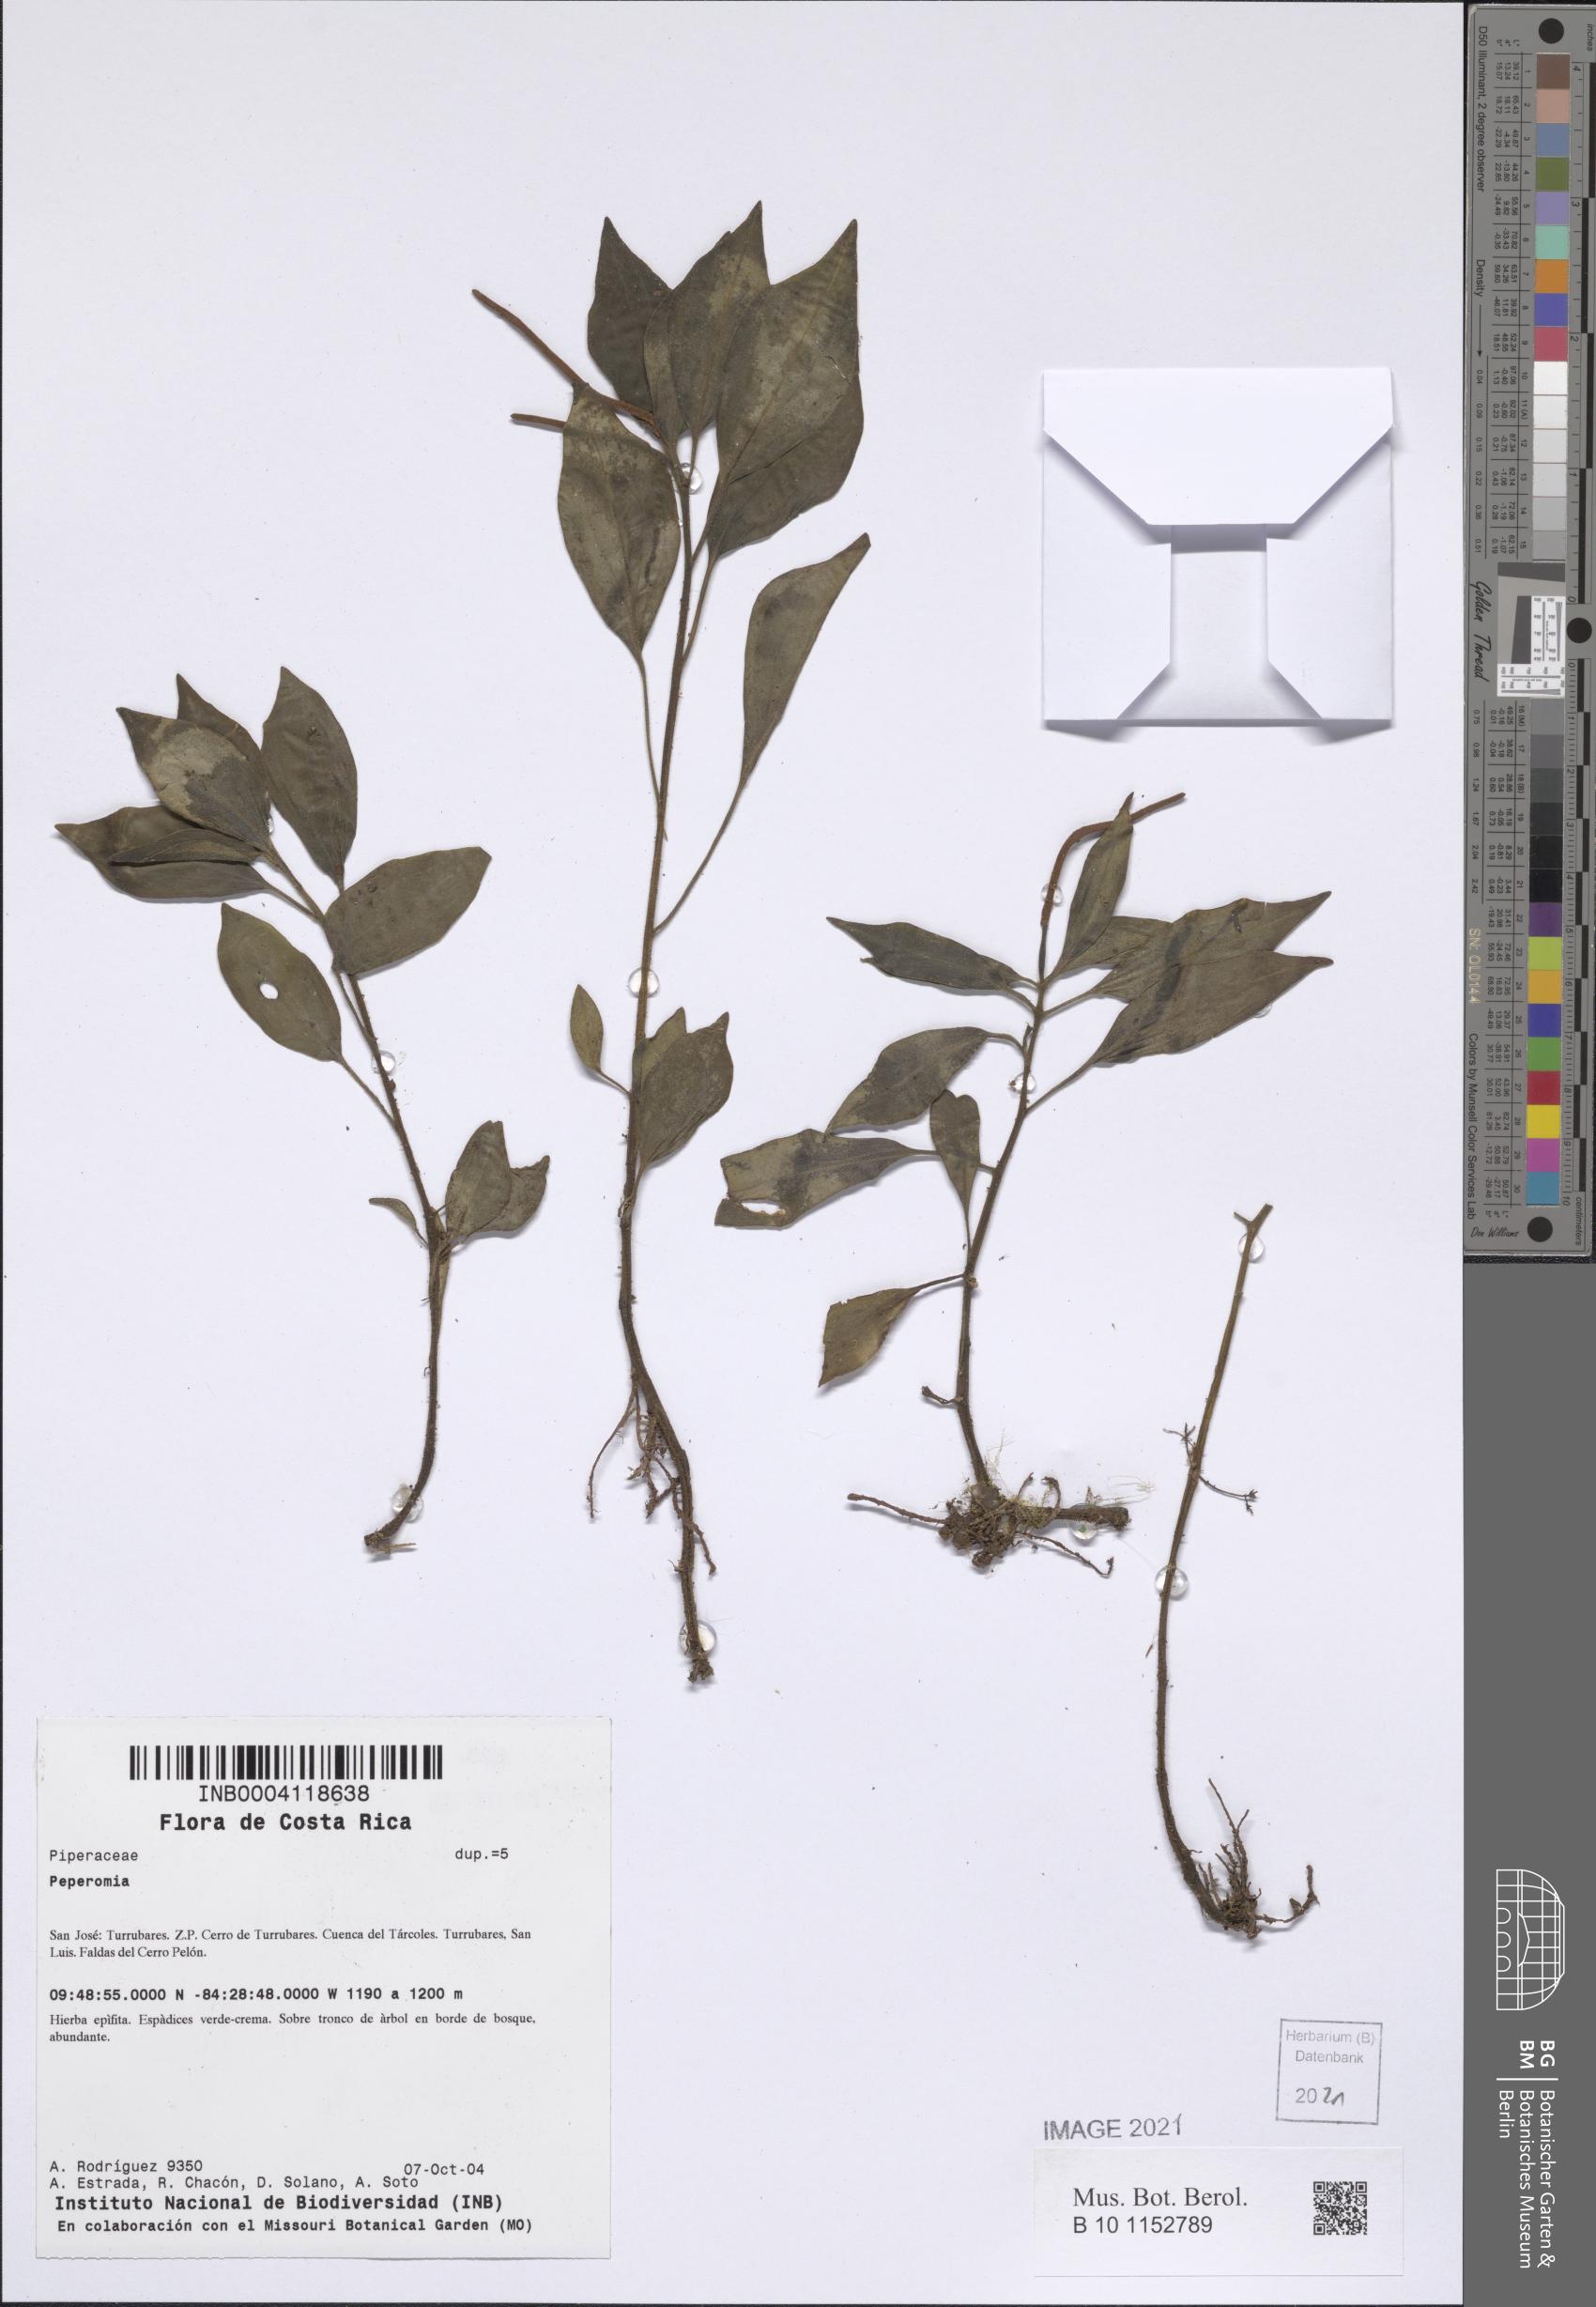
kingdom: Plantae
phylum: Tracheophyta
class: Magnoliopsida
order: Piperales
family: Piperaceae
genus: Peperomia
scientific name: Peperomia
